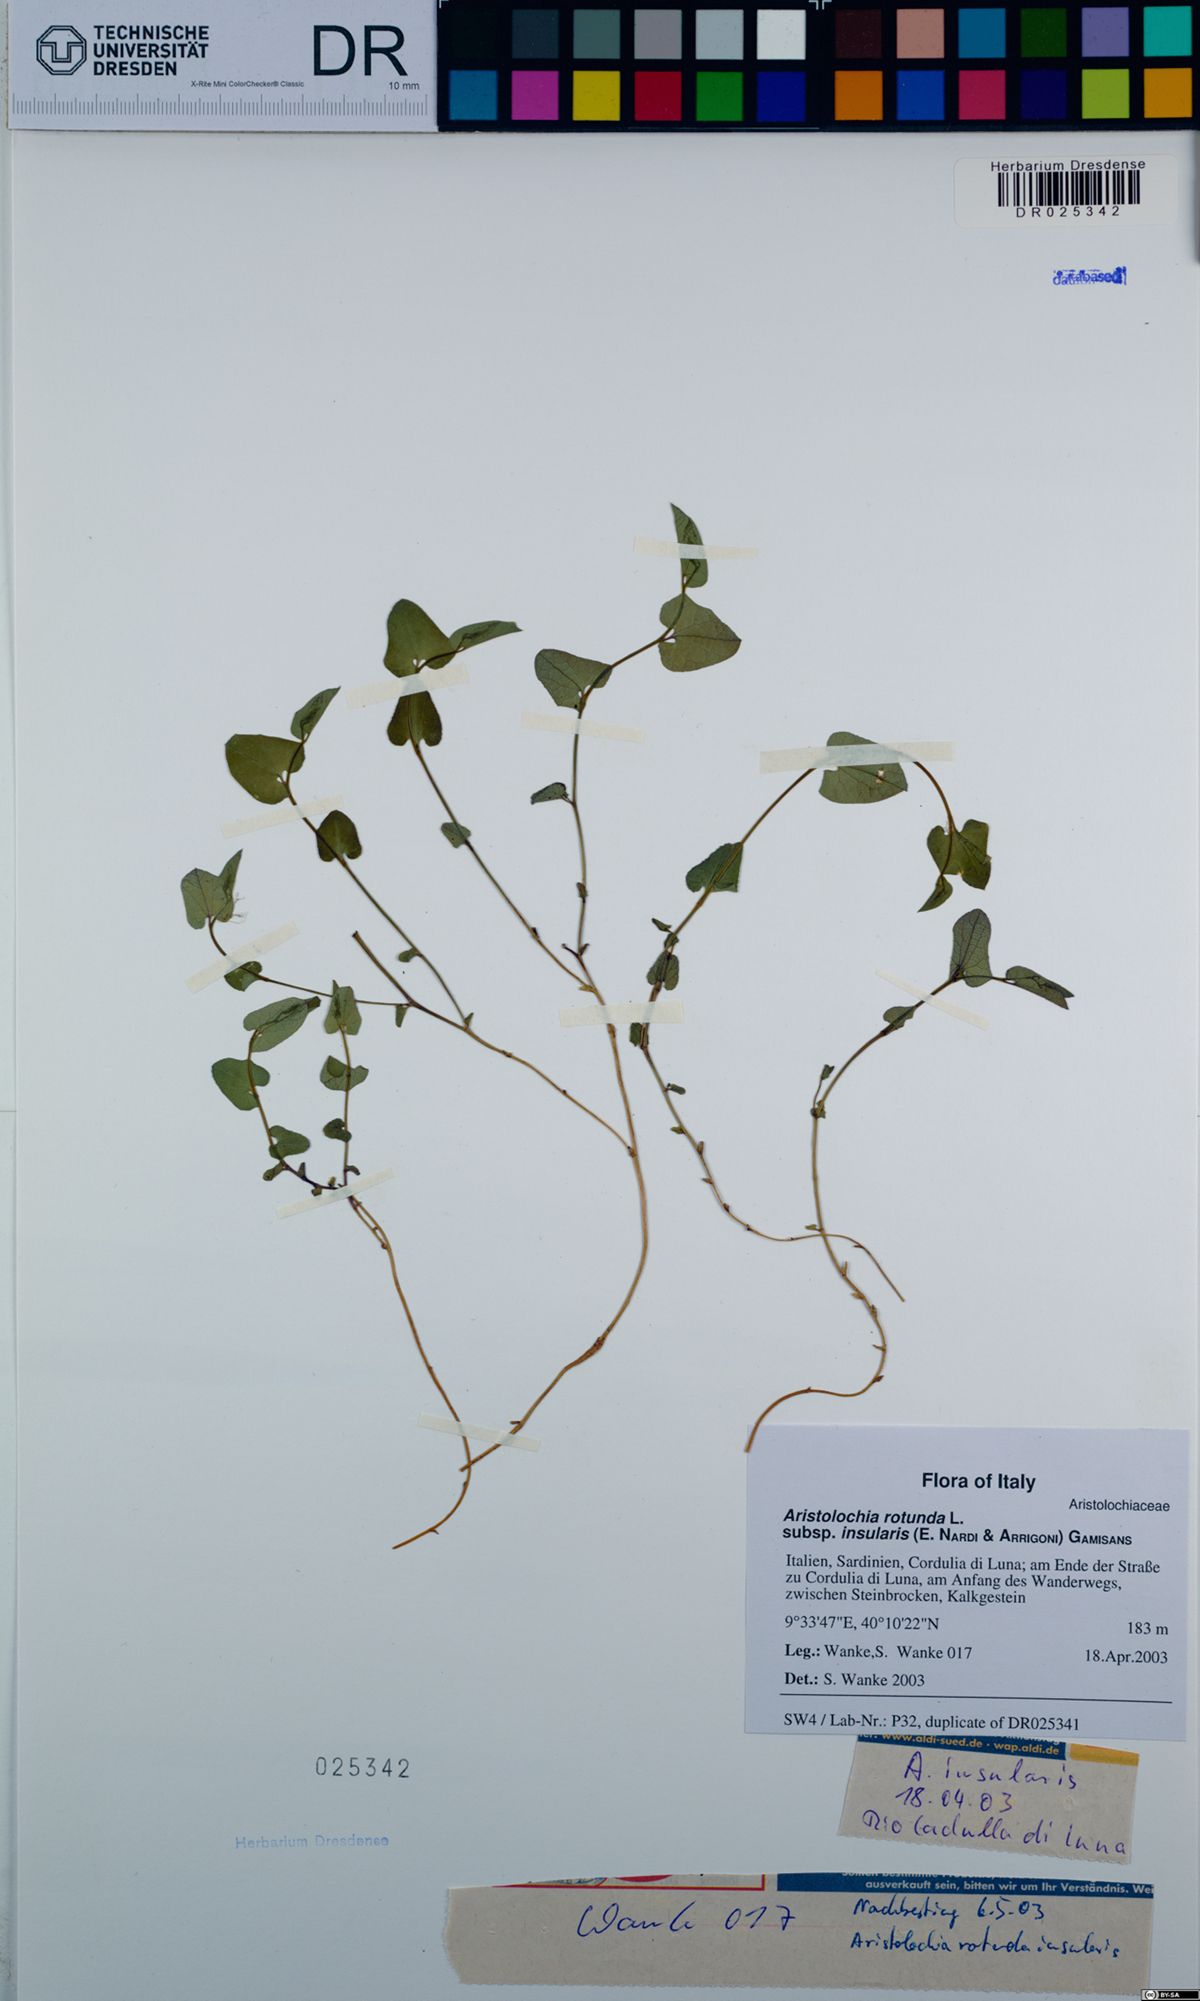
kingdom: Plantae
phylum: Tracheophyta
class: Magnoliopsida
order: Piperales
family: Aristolochiaceae
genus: Aristolochia
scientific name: Aristolochia rotunda
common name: Smearwort
